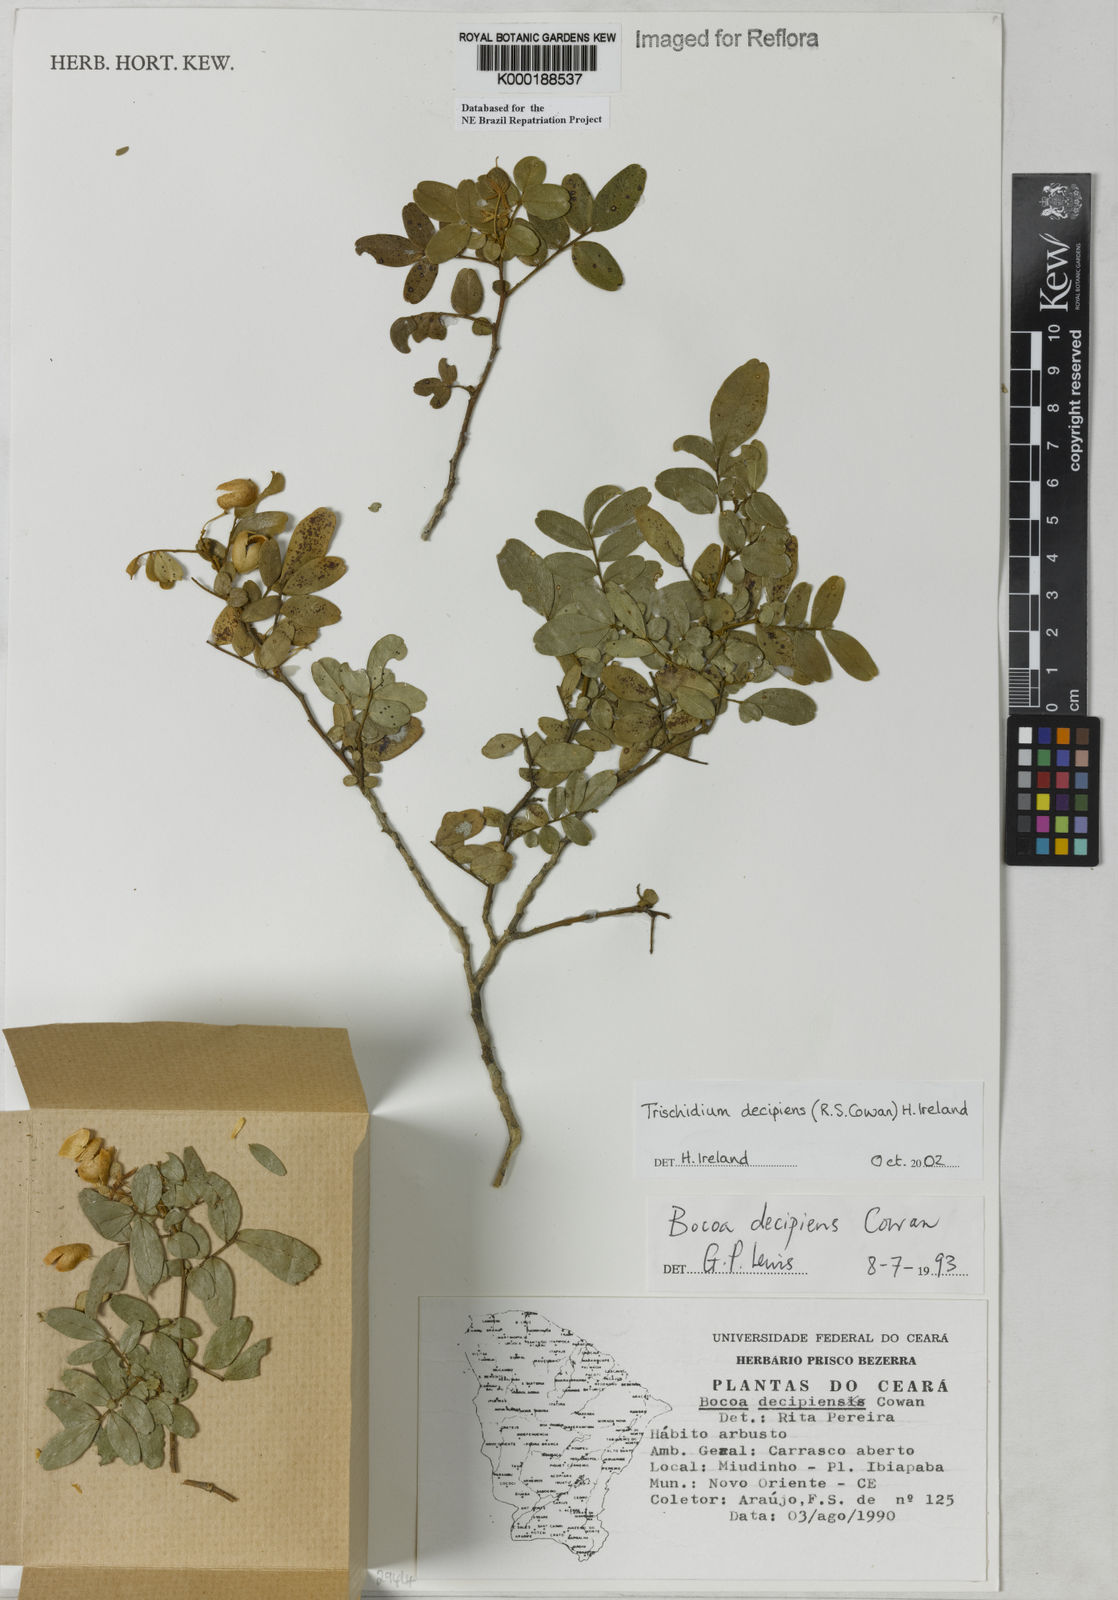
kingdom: Plantae
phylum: Tracheophyta
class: Magnoliopsida
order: Fabales
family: Fabaceae
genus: Trischidium
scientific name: Trischidium
